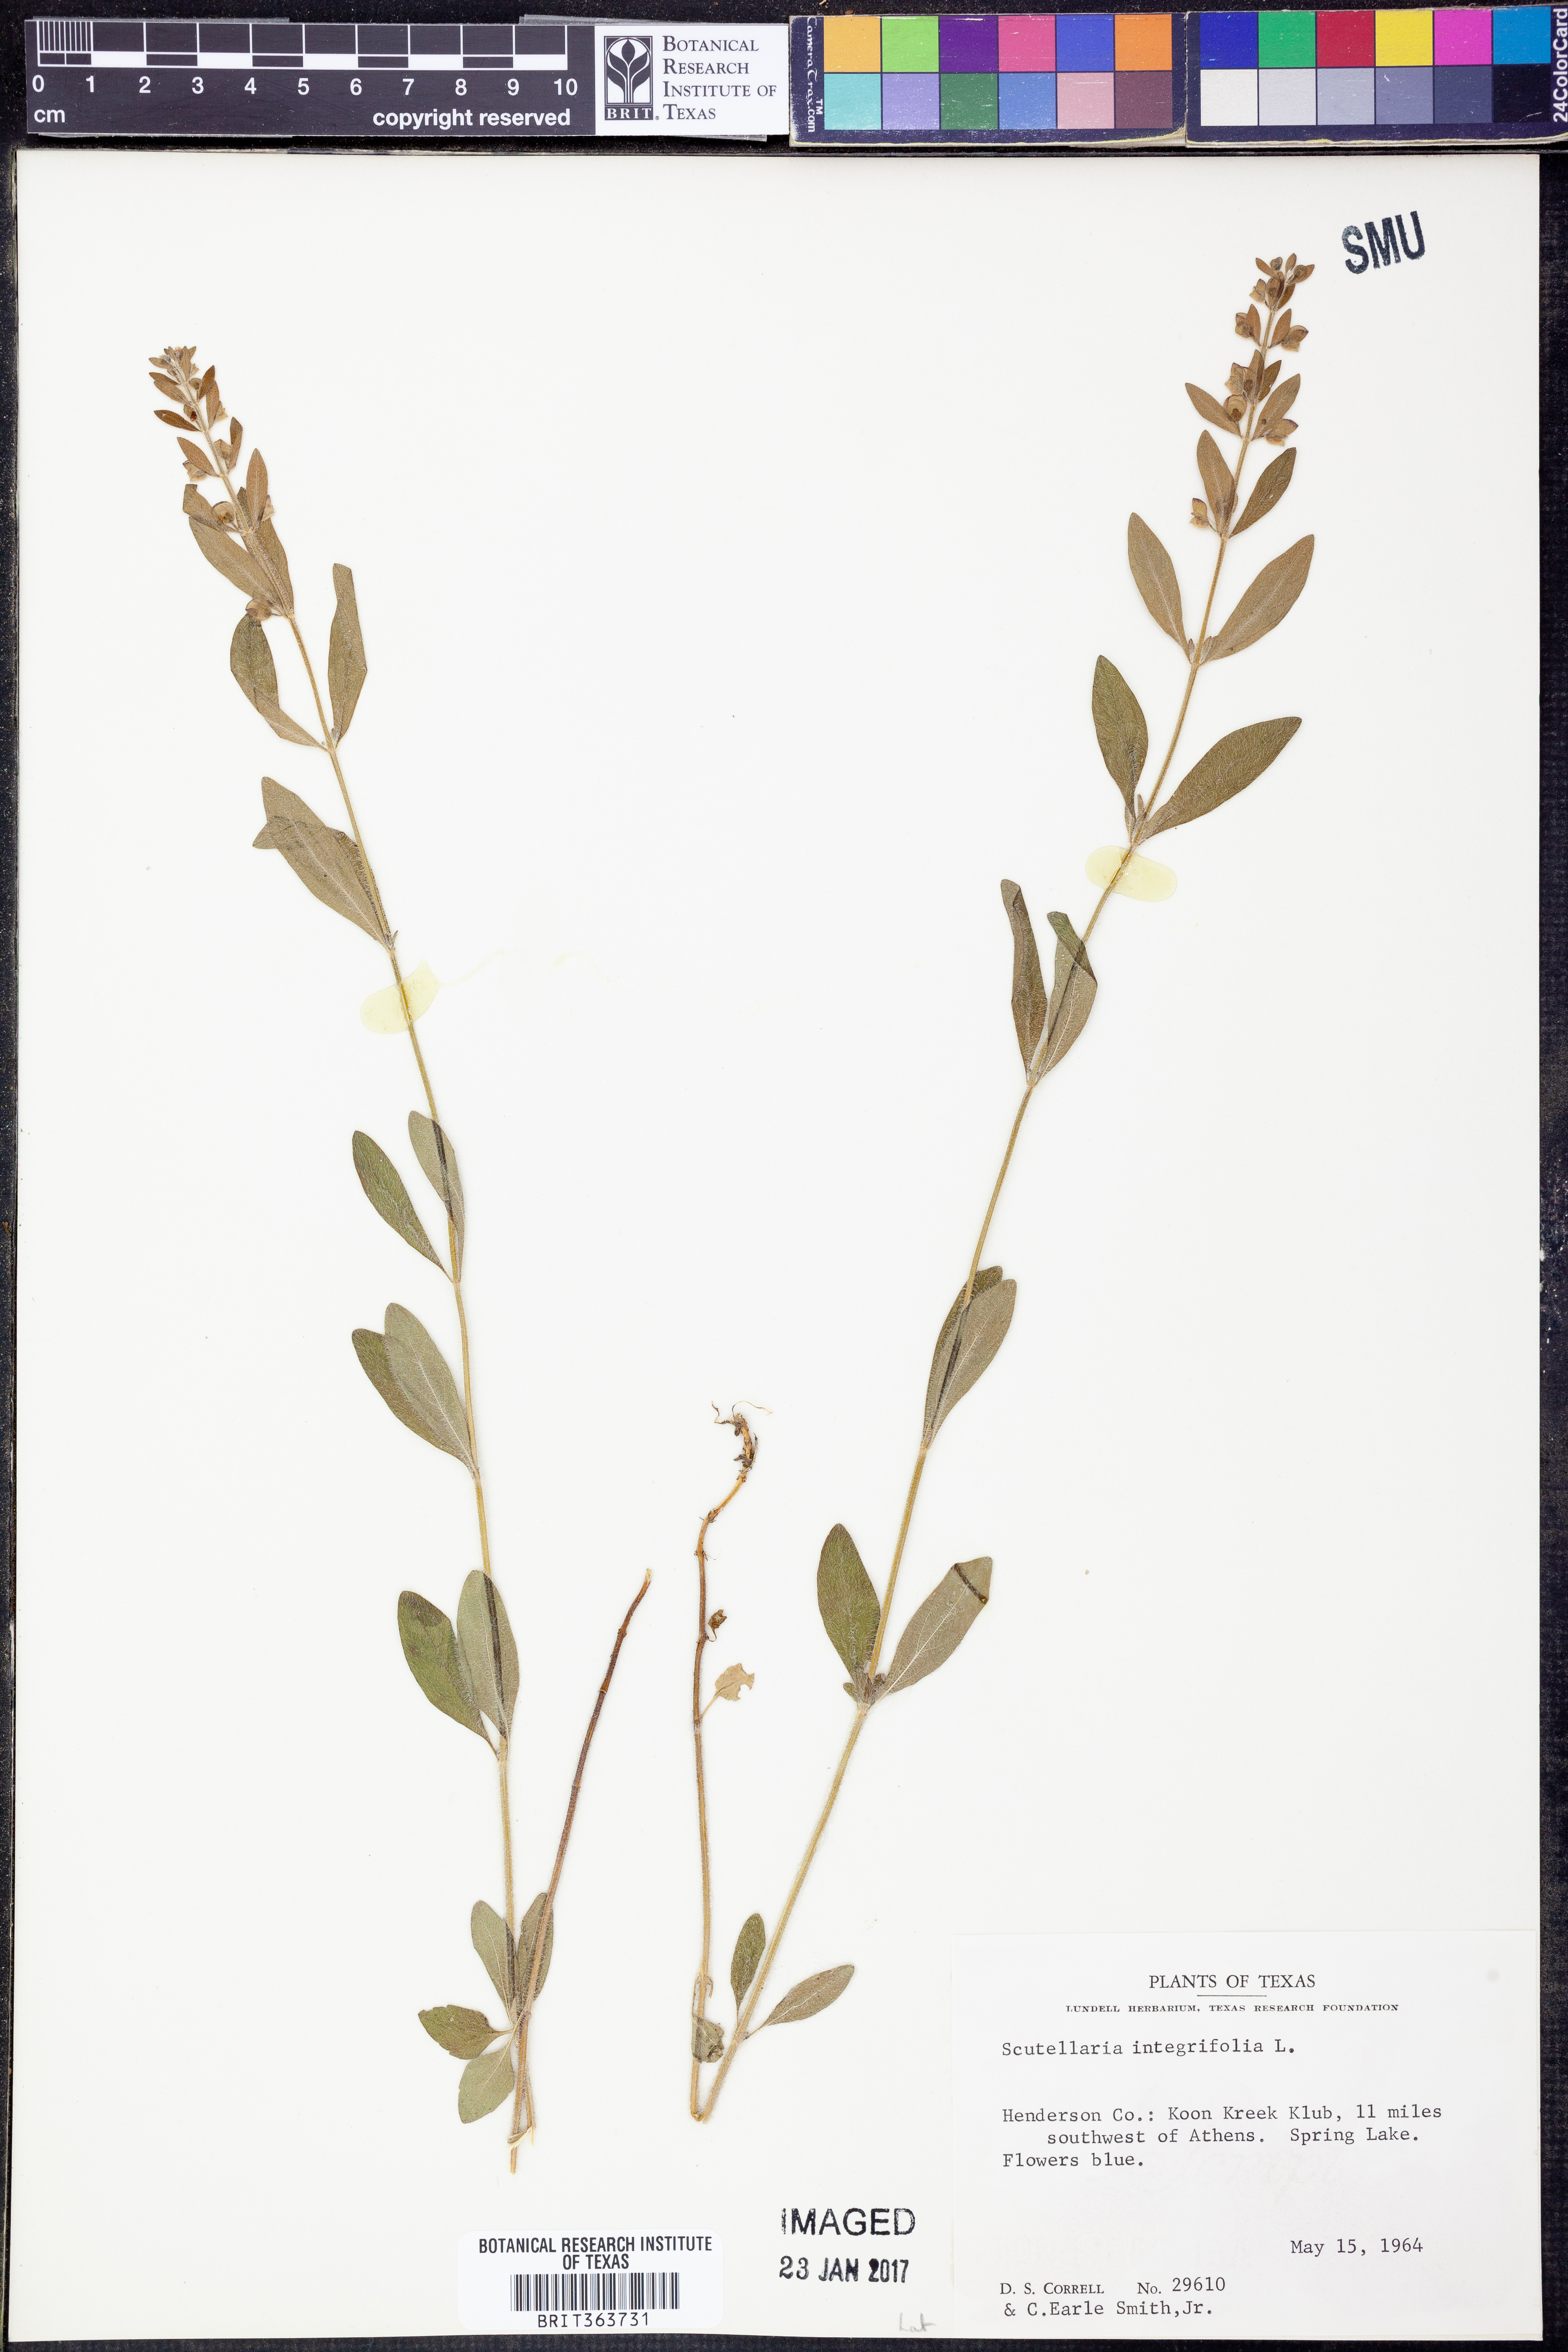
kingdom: Plantae
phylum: Tracheophyta
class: Magnoliopsida
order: Lamiales
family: Lamiaceae
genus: Scutellaria
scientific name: Scutellaria integrifolia
